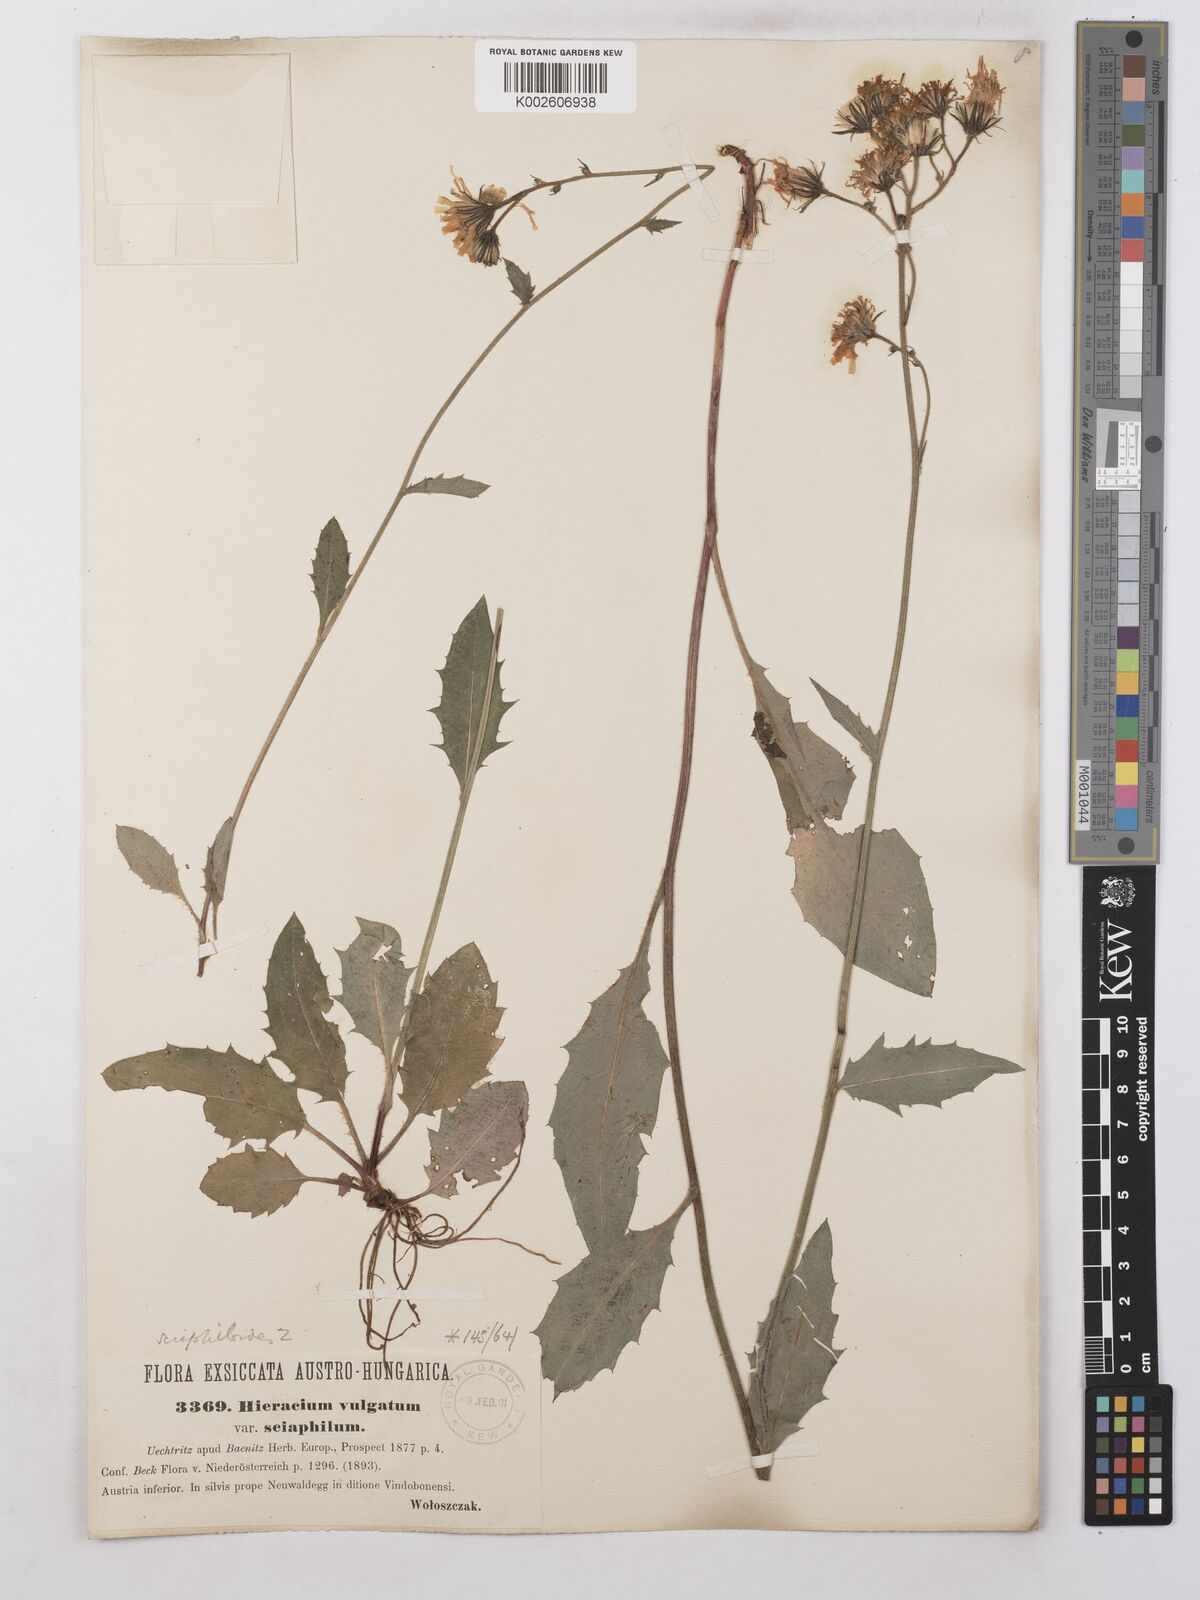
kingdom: Plantae
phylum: Tracheophyta
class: Magnoliopsida
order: Asterales
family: Asteraceae
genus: Hieracium
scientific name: Hieracium benzianum
